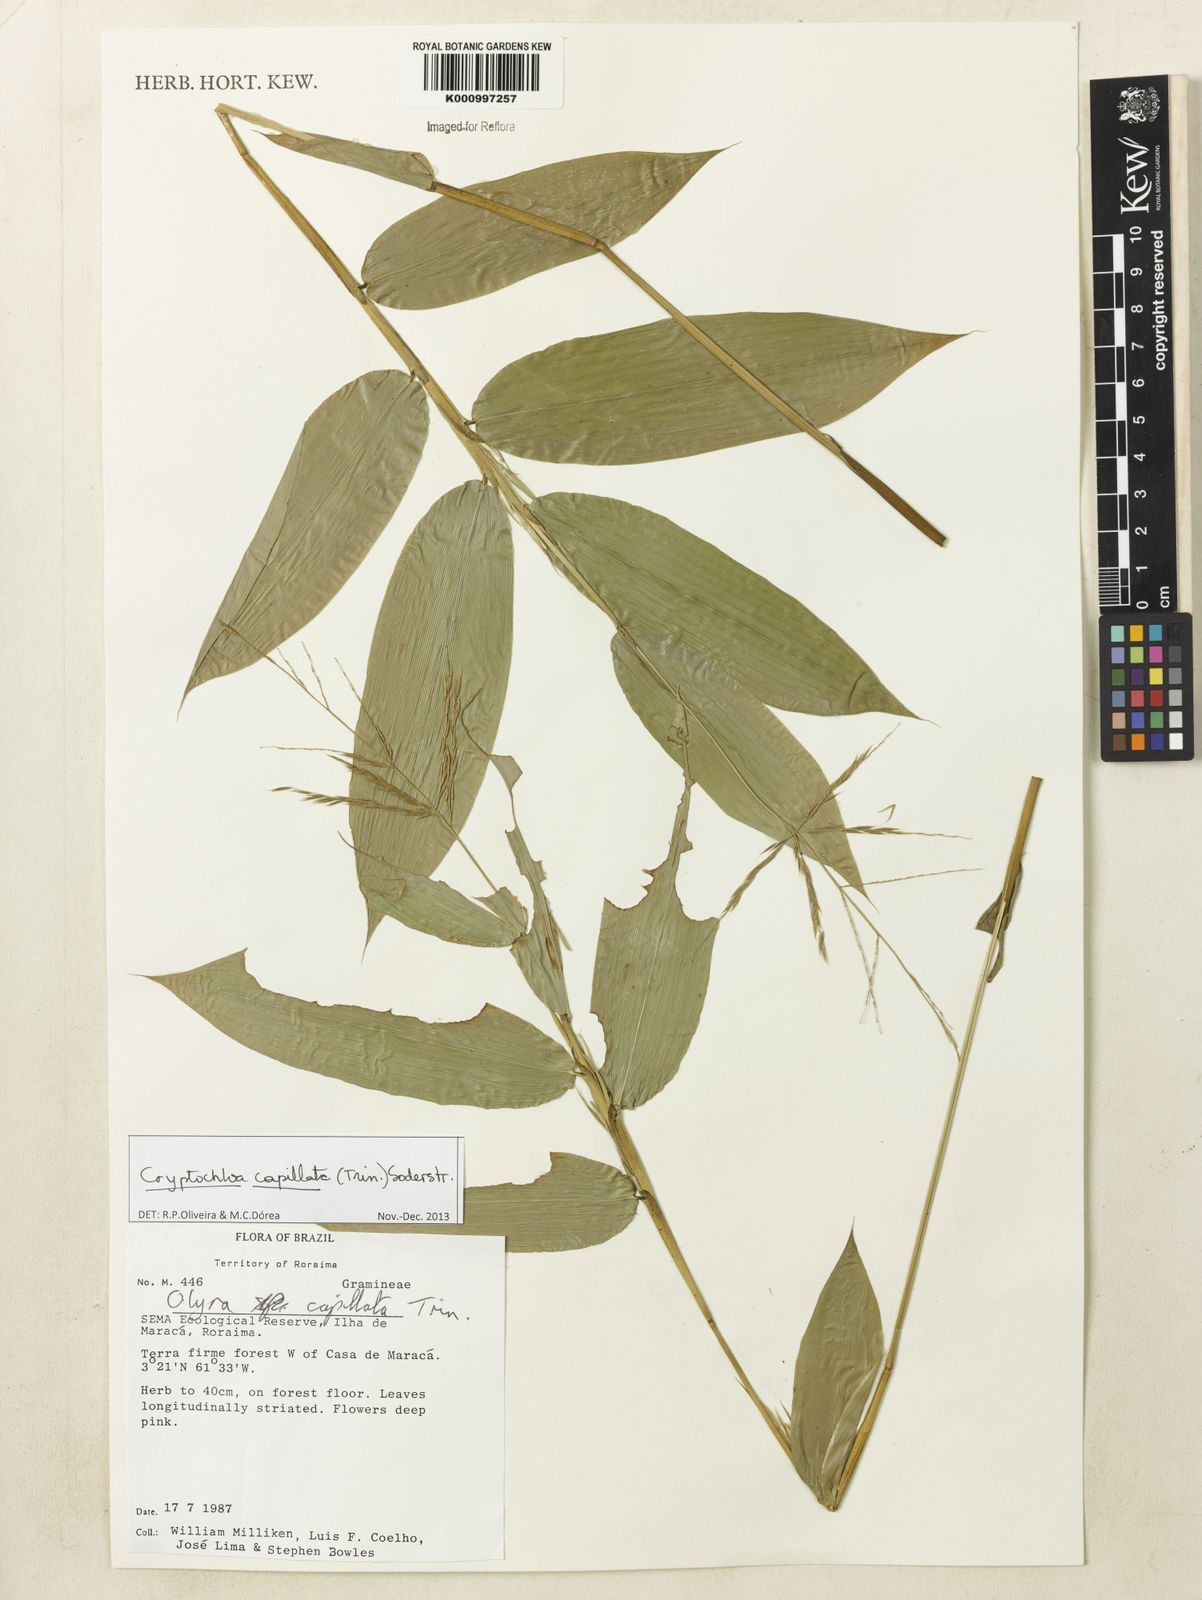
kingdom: Plantae
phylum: Tracheophyta
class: Liliopsida
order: Poales
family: Poaceae
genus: Cryptochloa
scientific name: Cryptochloa capillata
